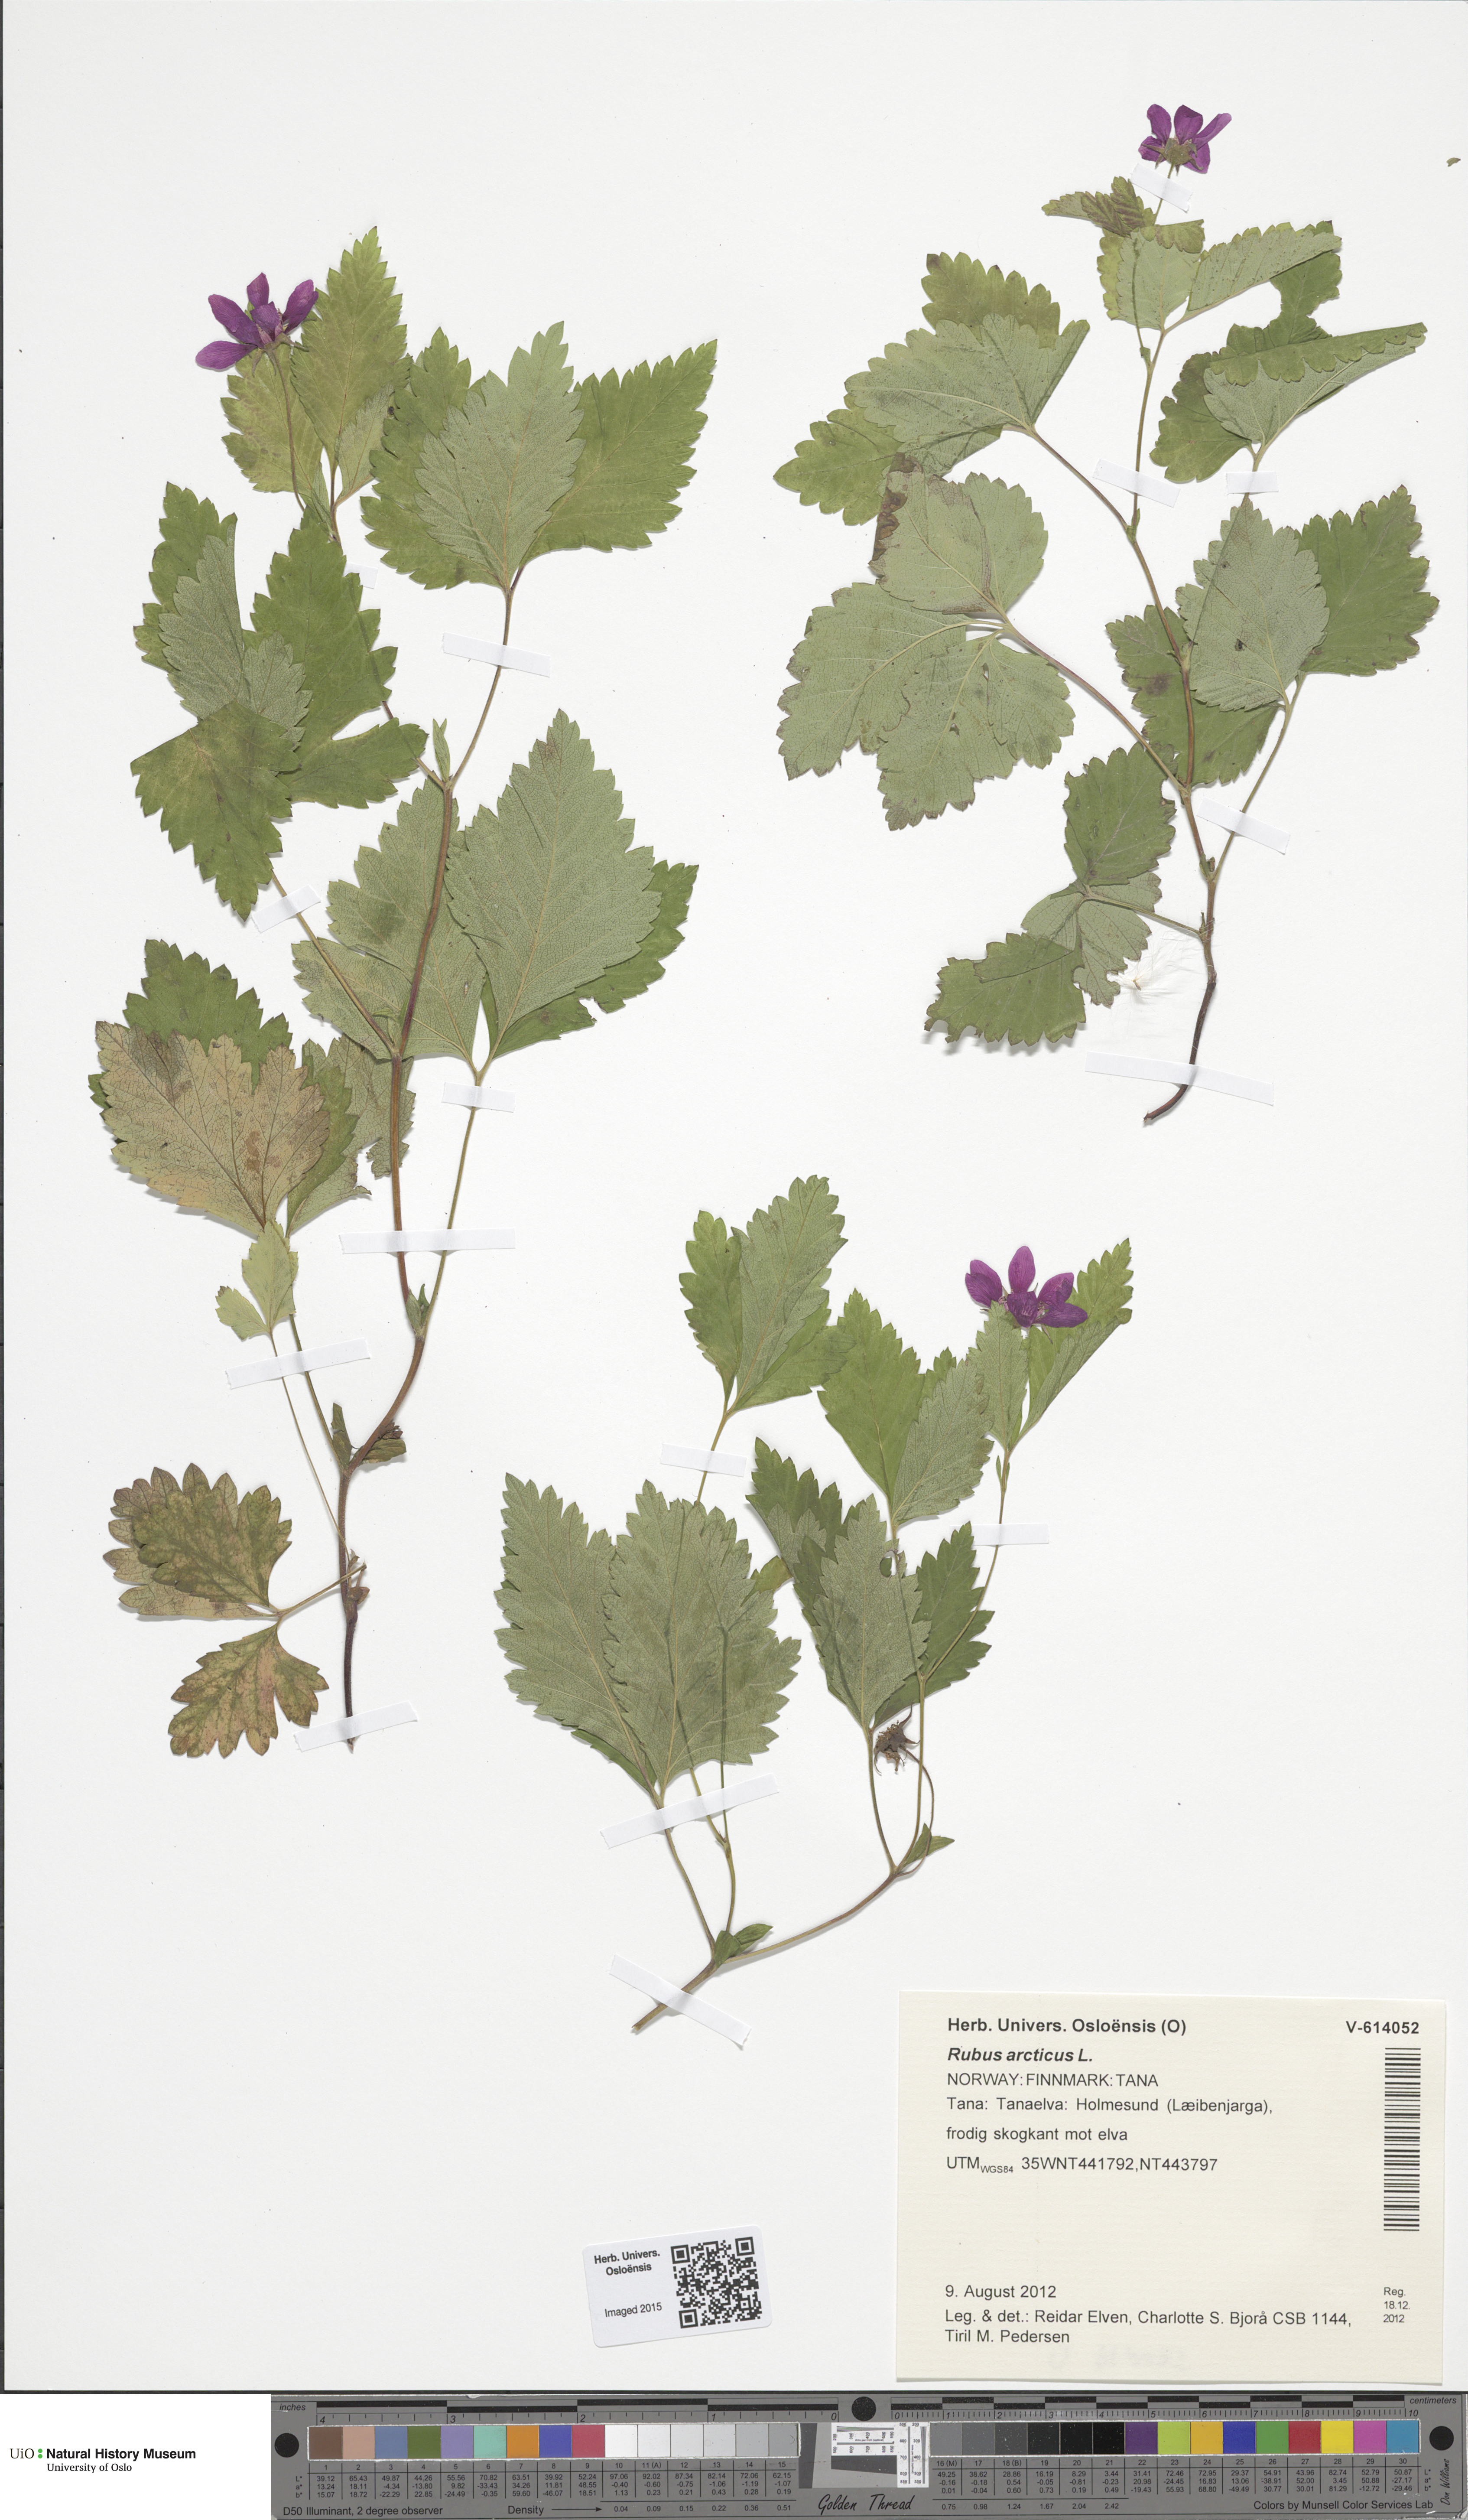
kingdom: Plantae
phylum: Tracheophyta
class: Magnoliopsida
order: Rosales
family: Rosaceae
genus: Rubus
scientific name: Rubus arcticus
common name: Arctic bramble
